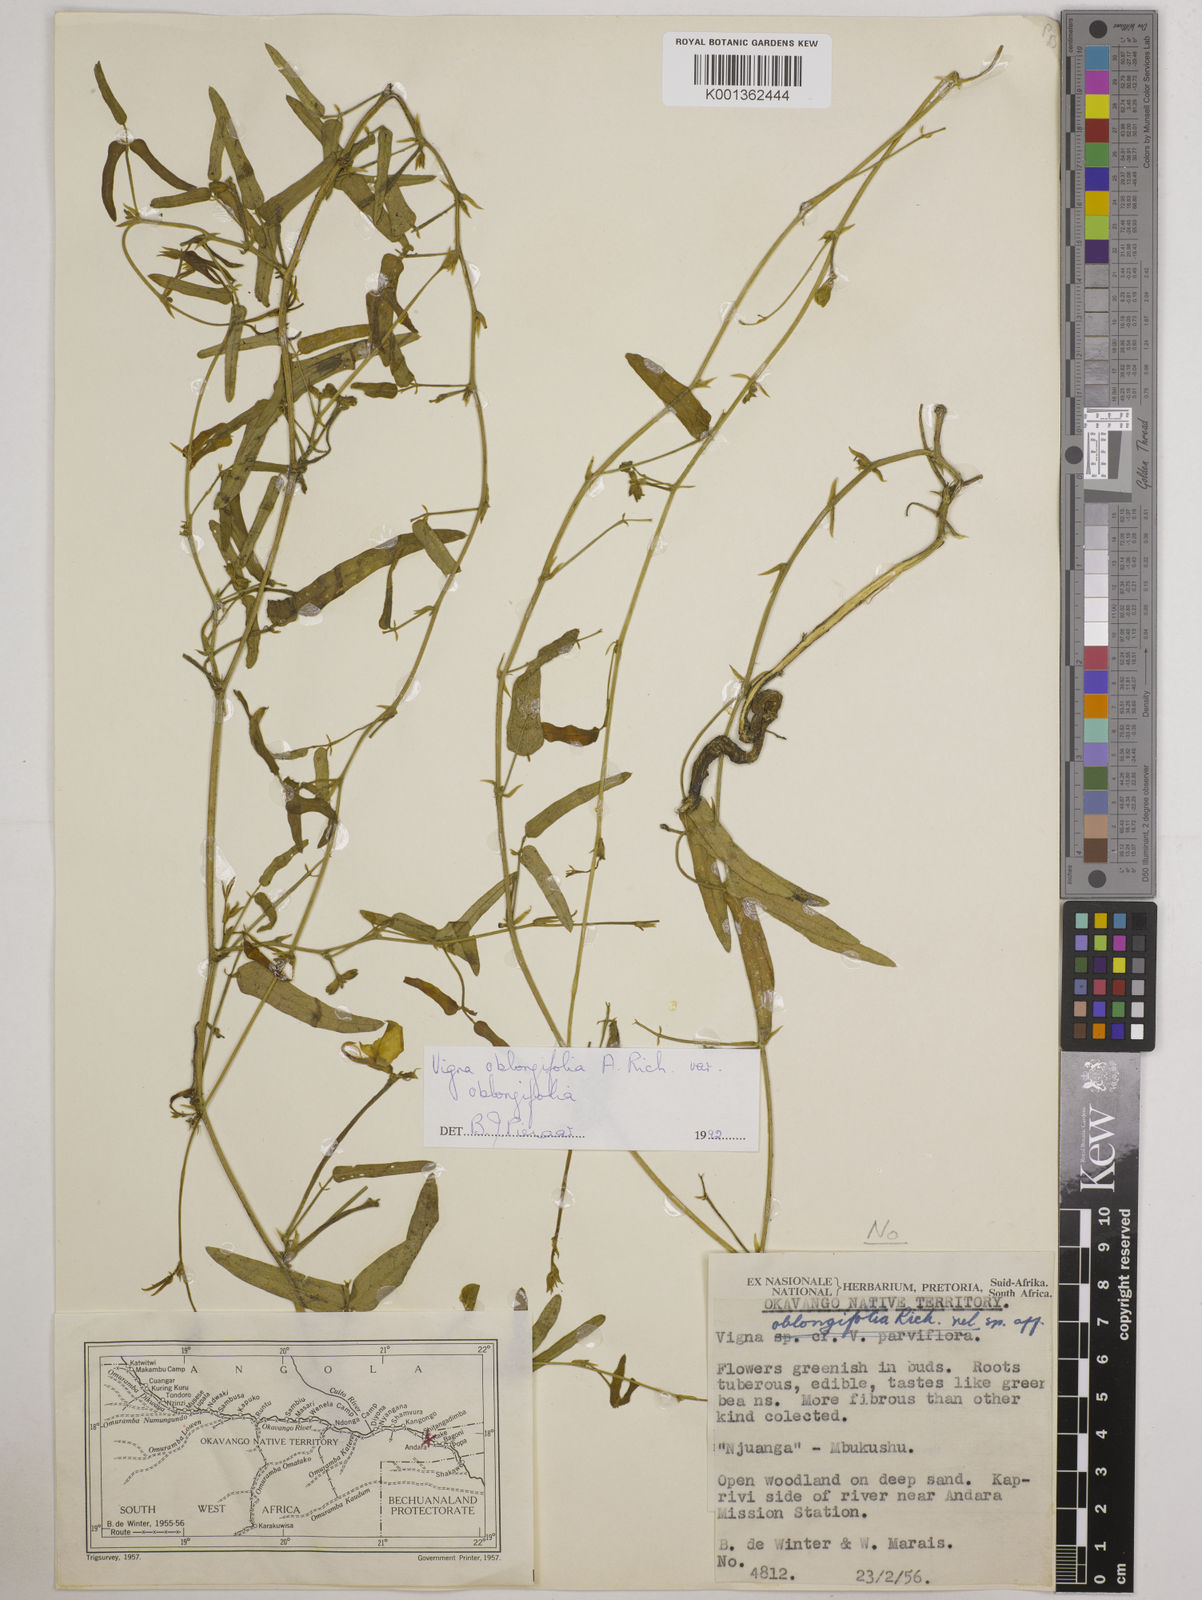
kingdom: Plantae
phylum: Tracheophyta
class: Magnoliopsida
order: Fabales
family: Fabaceae
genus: Vigna
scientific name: Vigna oblongifolia
